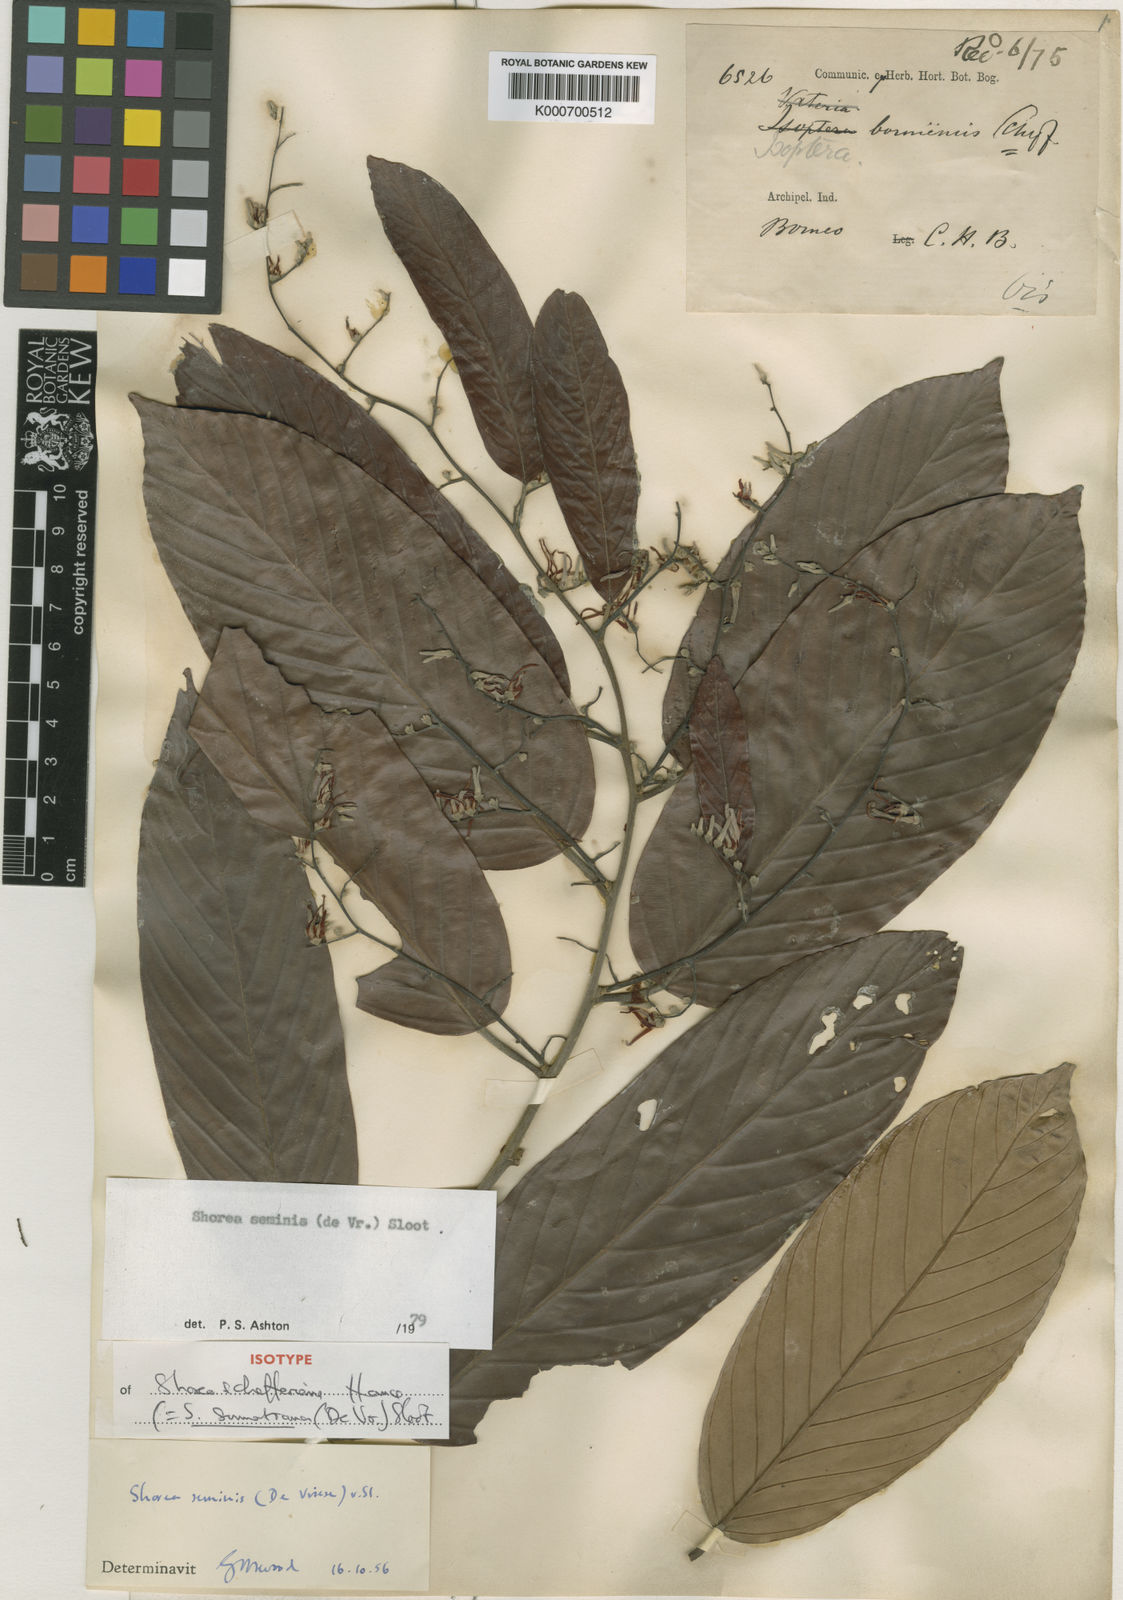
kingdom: Plantae
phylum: Tracheophyta
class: Magnoliopsida
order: Malvales
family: Dipterocarpaceae
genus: Shorea
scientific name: Shorea sumatrana
